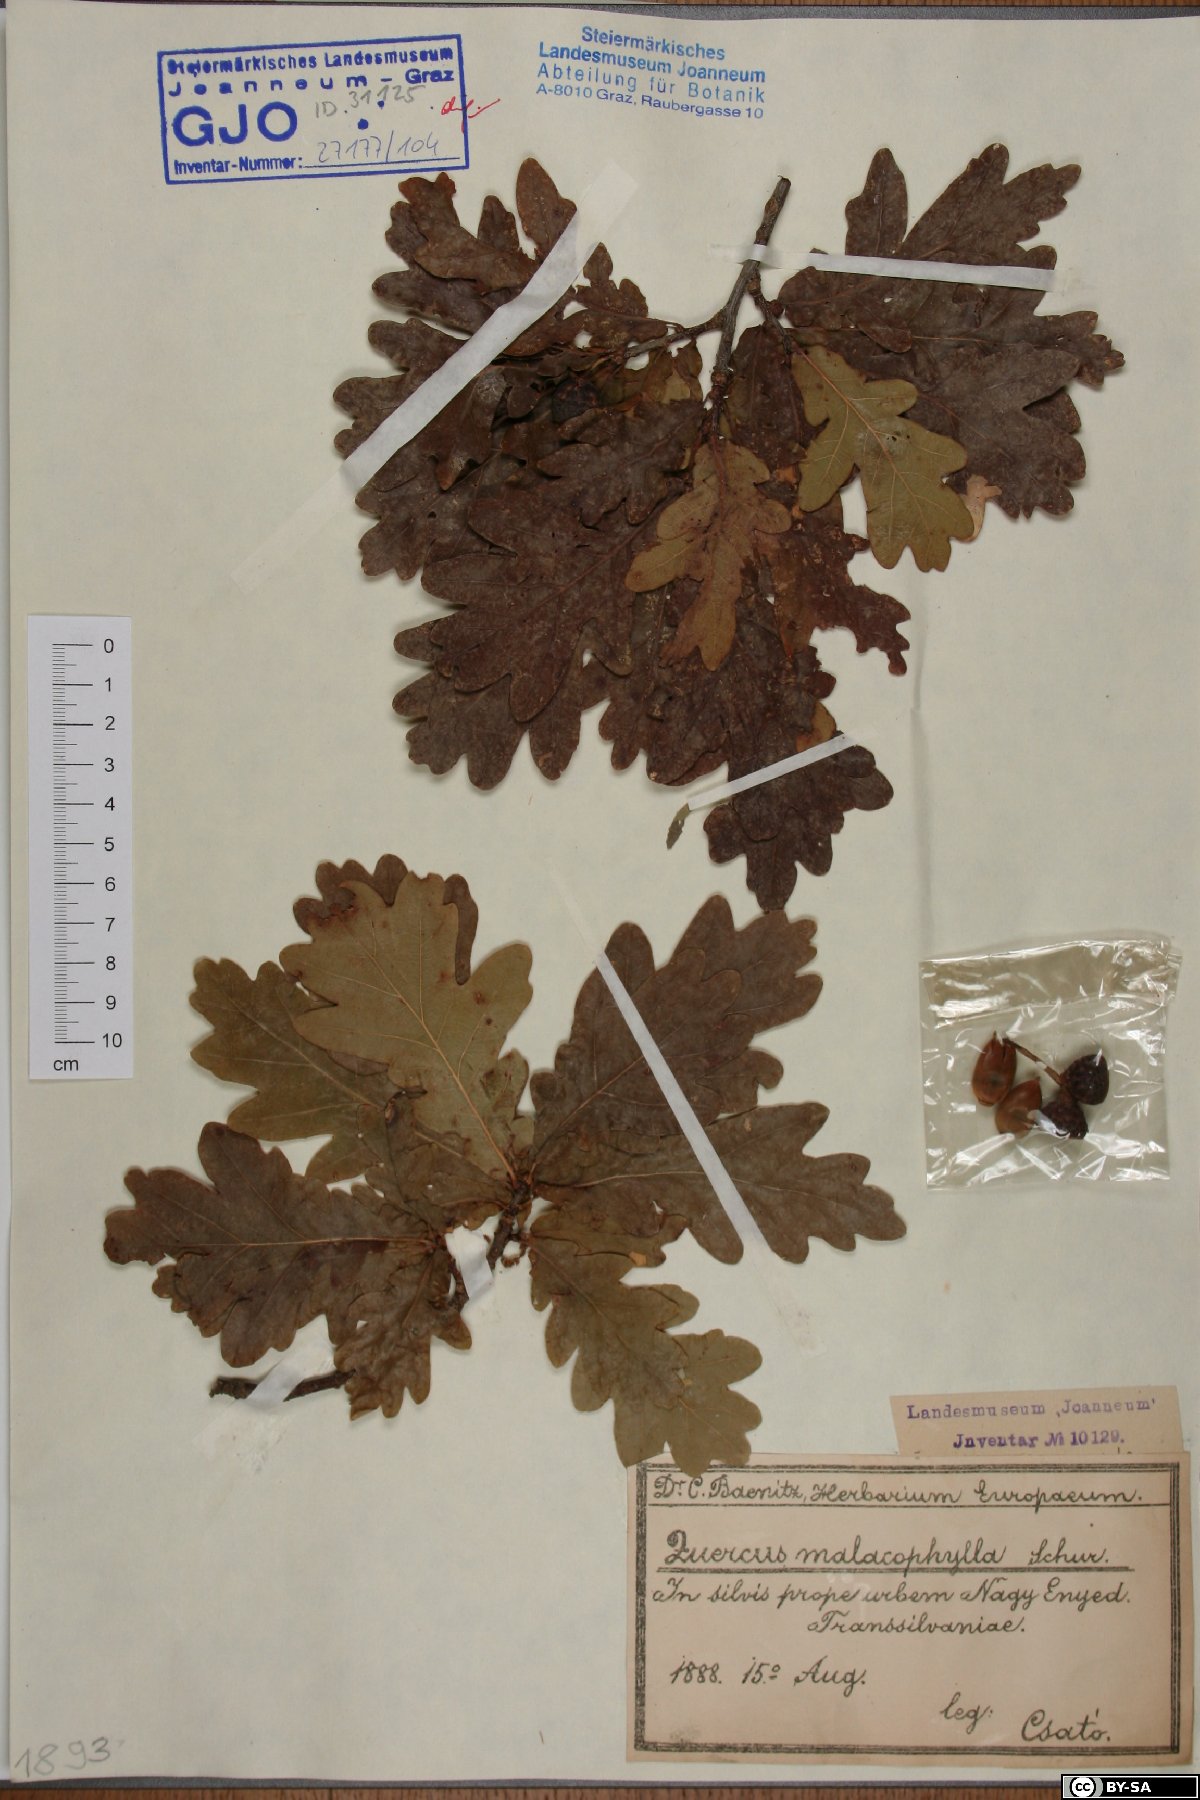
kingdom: Plantae
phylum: Tracheophyta
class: Magnoliopsida
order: Fagales
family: Fagaceae
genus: Quercus
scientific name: Quercus robur
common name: Pedunculate oak
